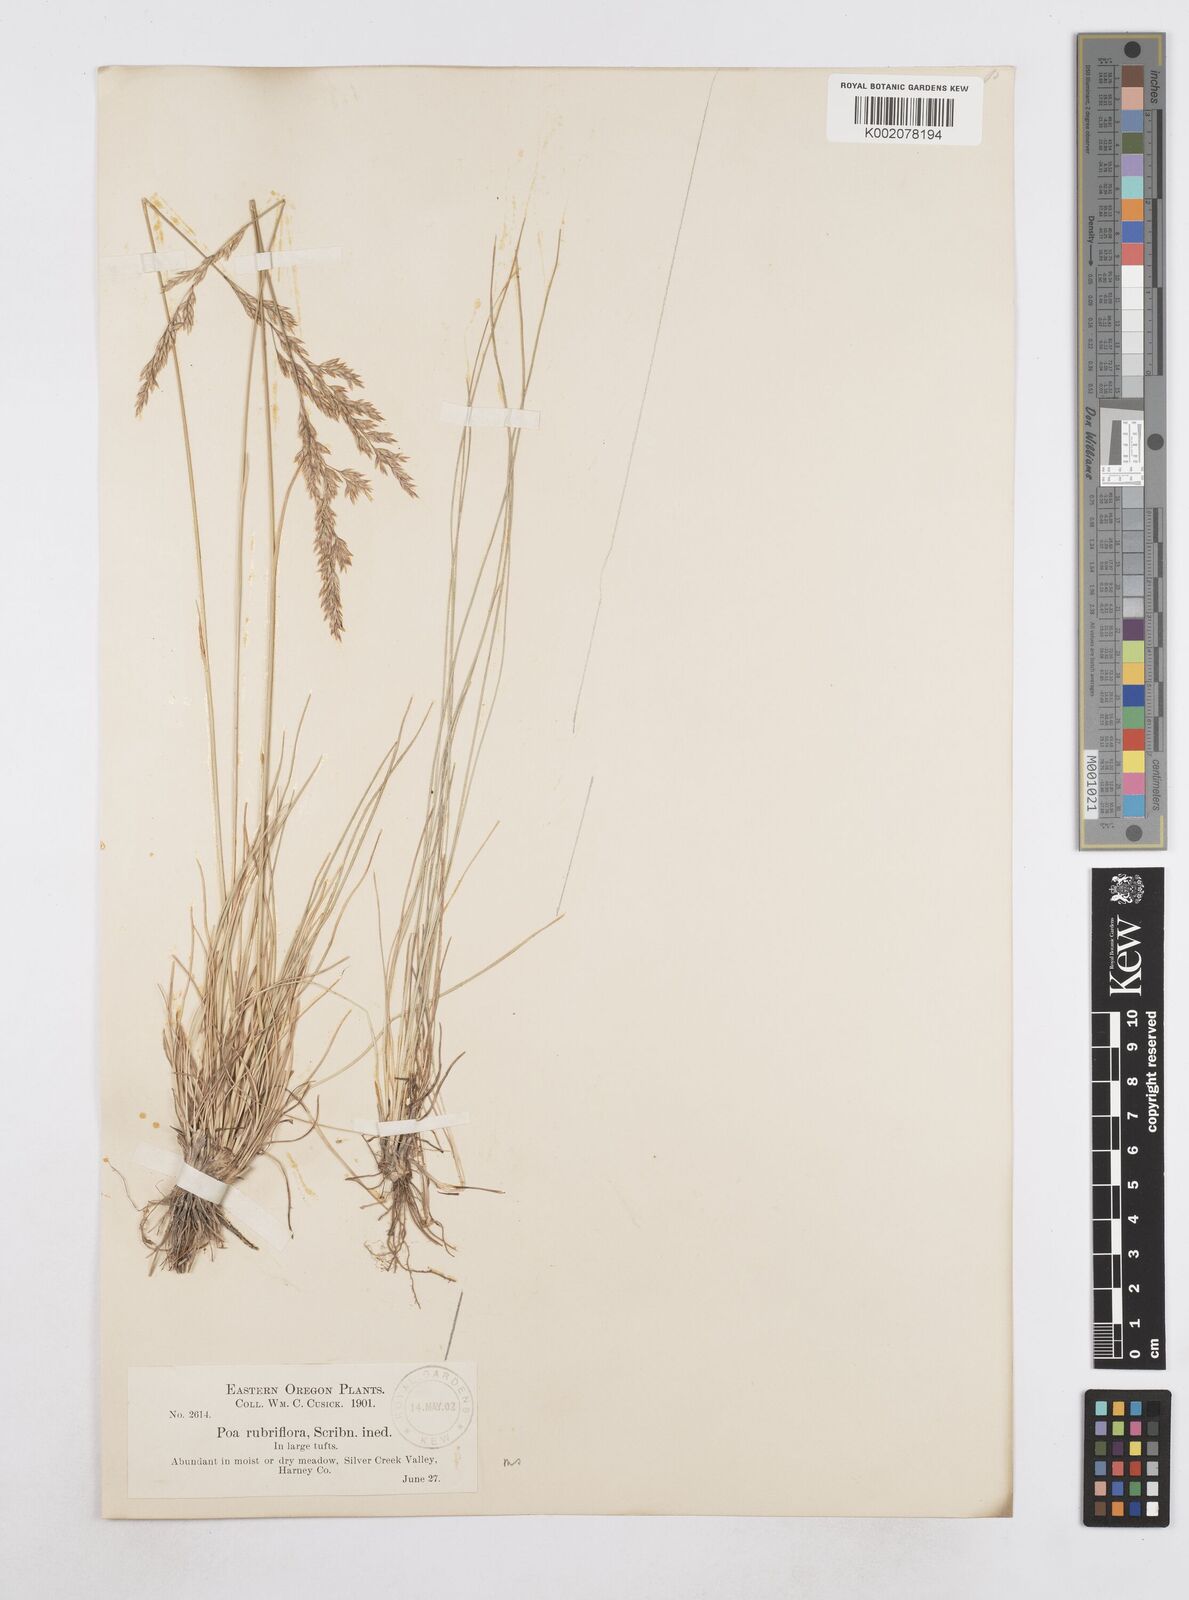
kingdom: Plantae
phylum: Tracheophyta
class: Liliopsida
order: Poales
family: Poaceae
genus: Poa
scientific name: Poa
